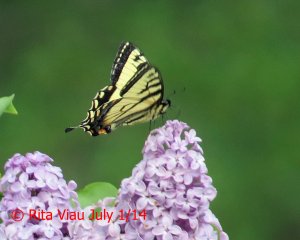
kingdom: Animalia
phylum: Arthropoda
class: Insecta
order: Lepidoptera
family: Papilionidae
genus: Pterourus
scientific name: Pterourus canadensis
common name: Canadian Tiger Swallowtail
